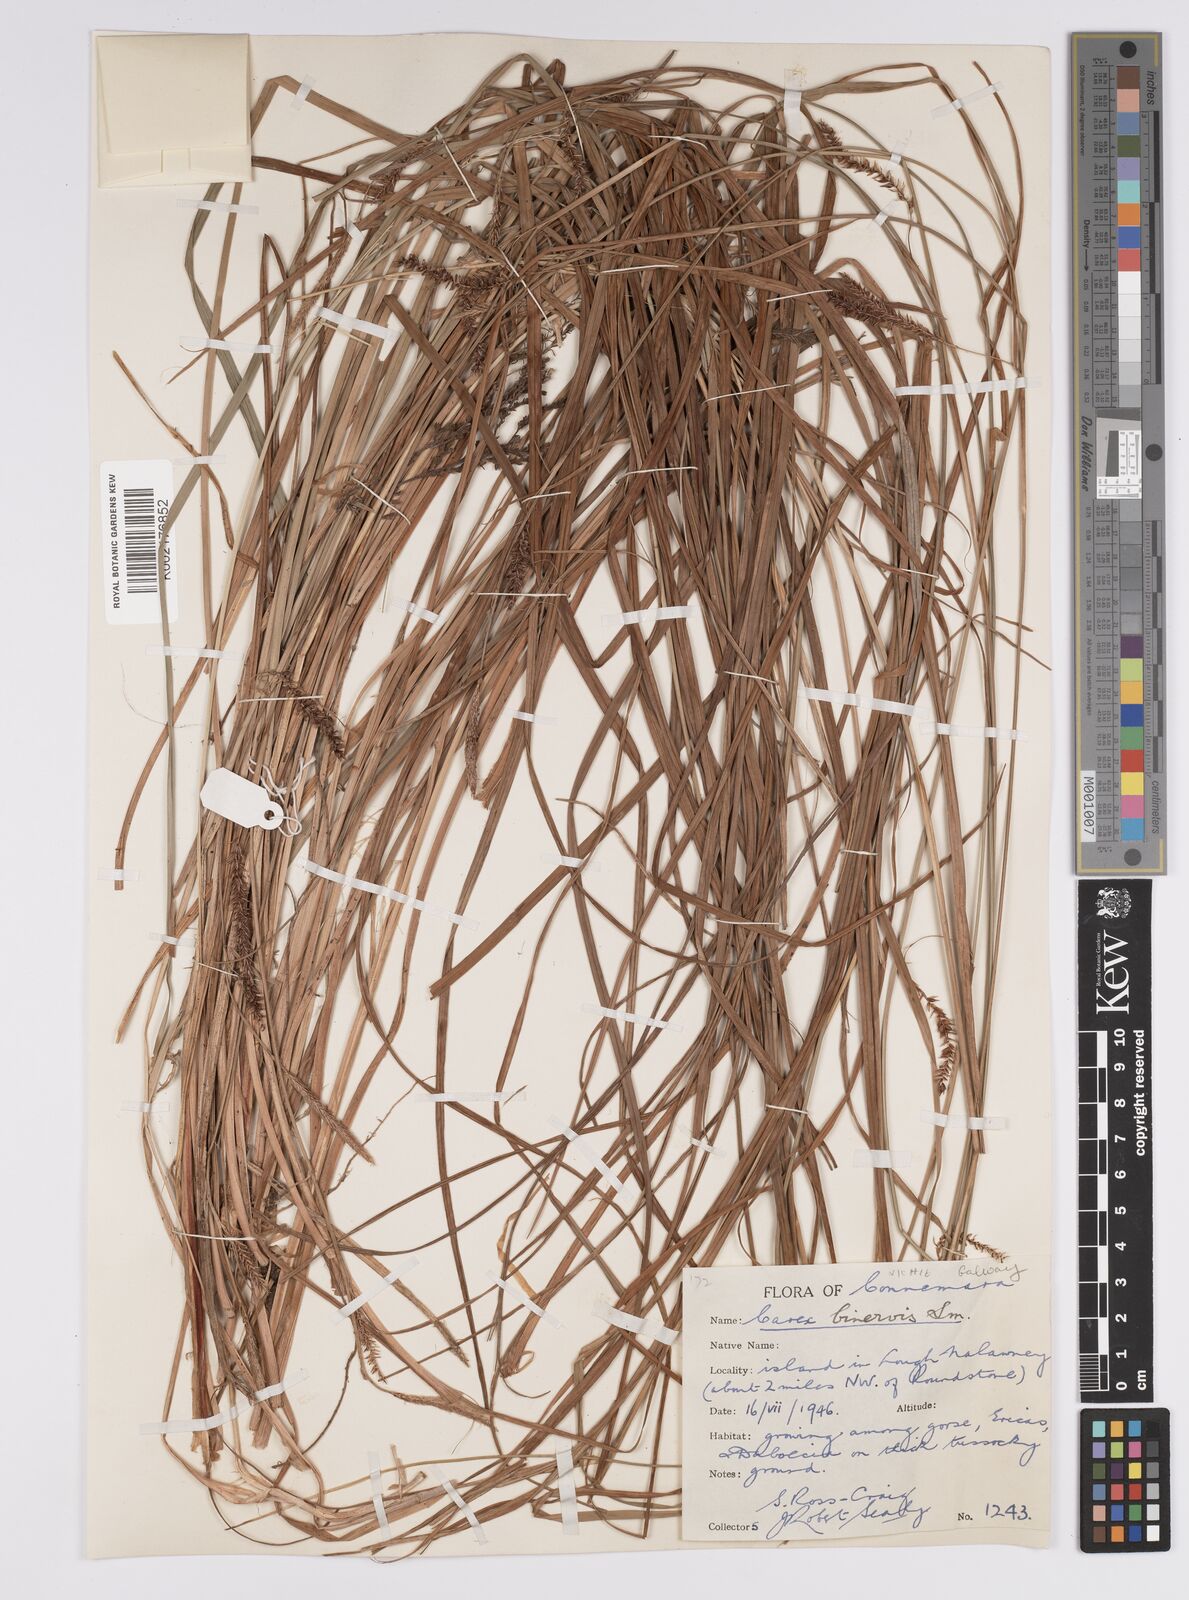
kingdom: Plantae
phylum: Tracheophyta
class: Liliopsida
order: Poales
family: Cyperaceae
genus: Carex
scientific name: Carex binervis
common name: Green-ribbed sedge
